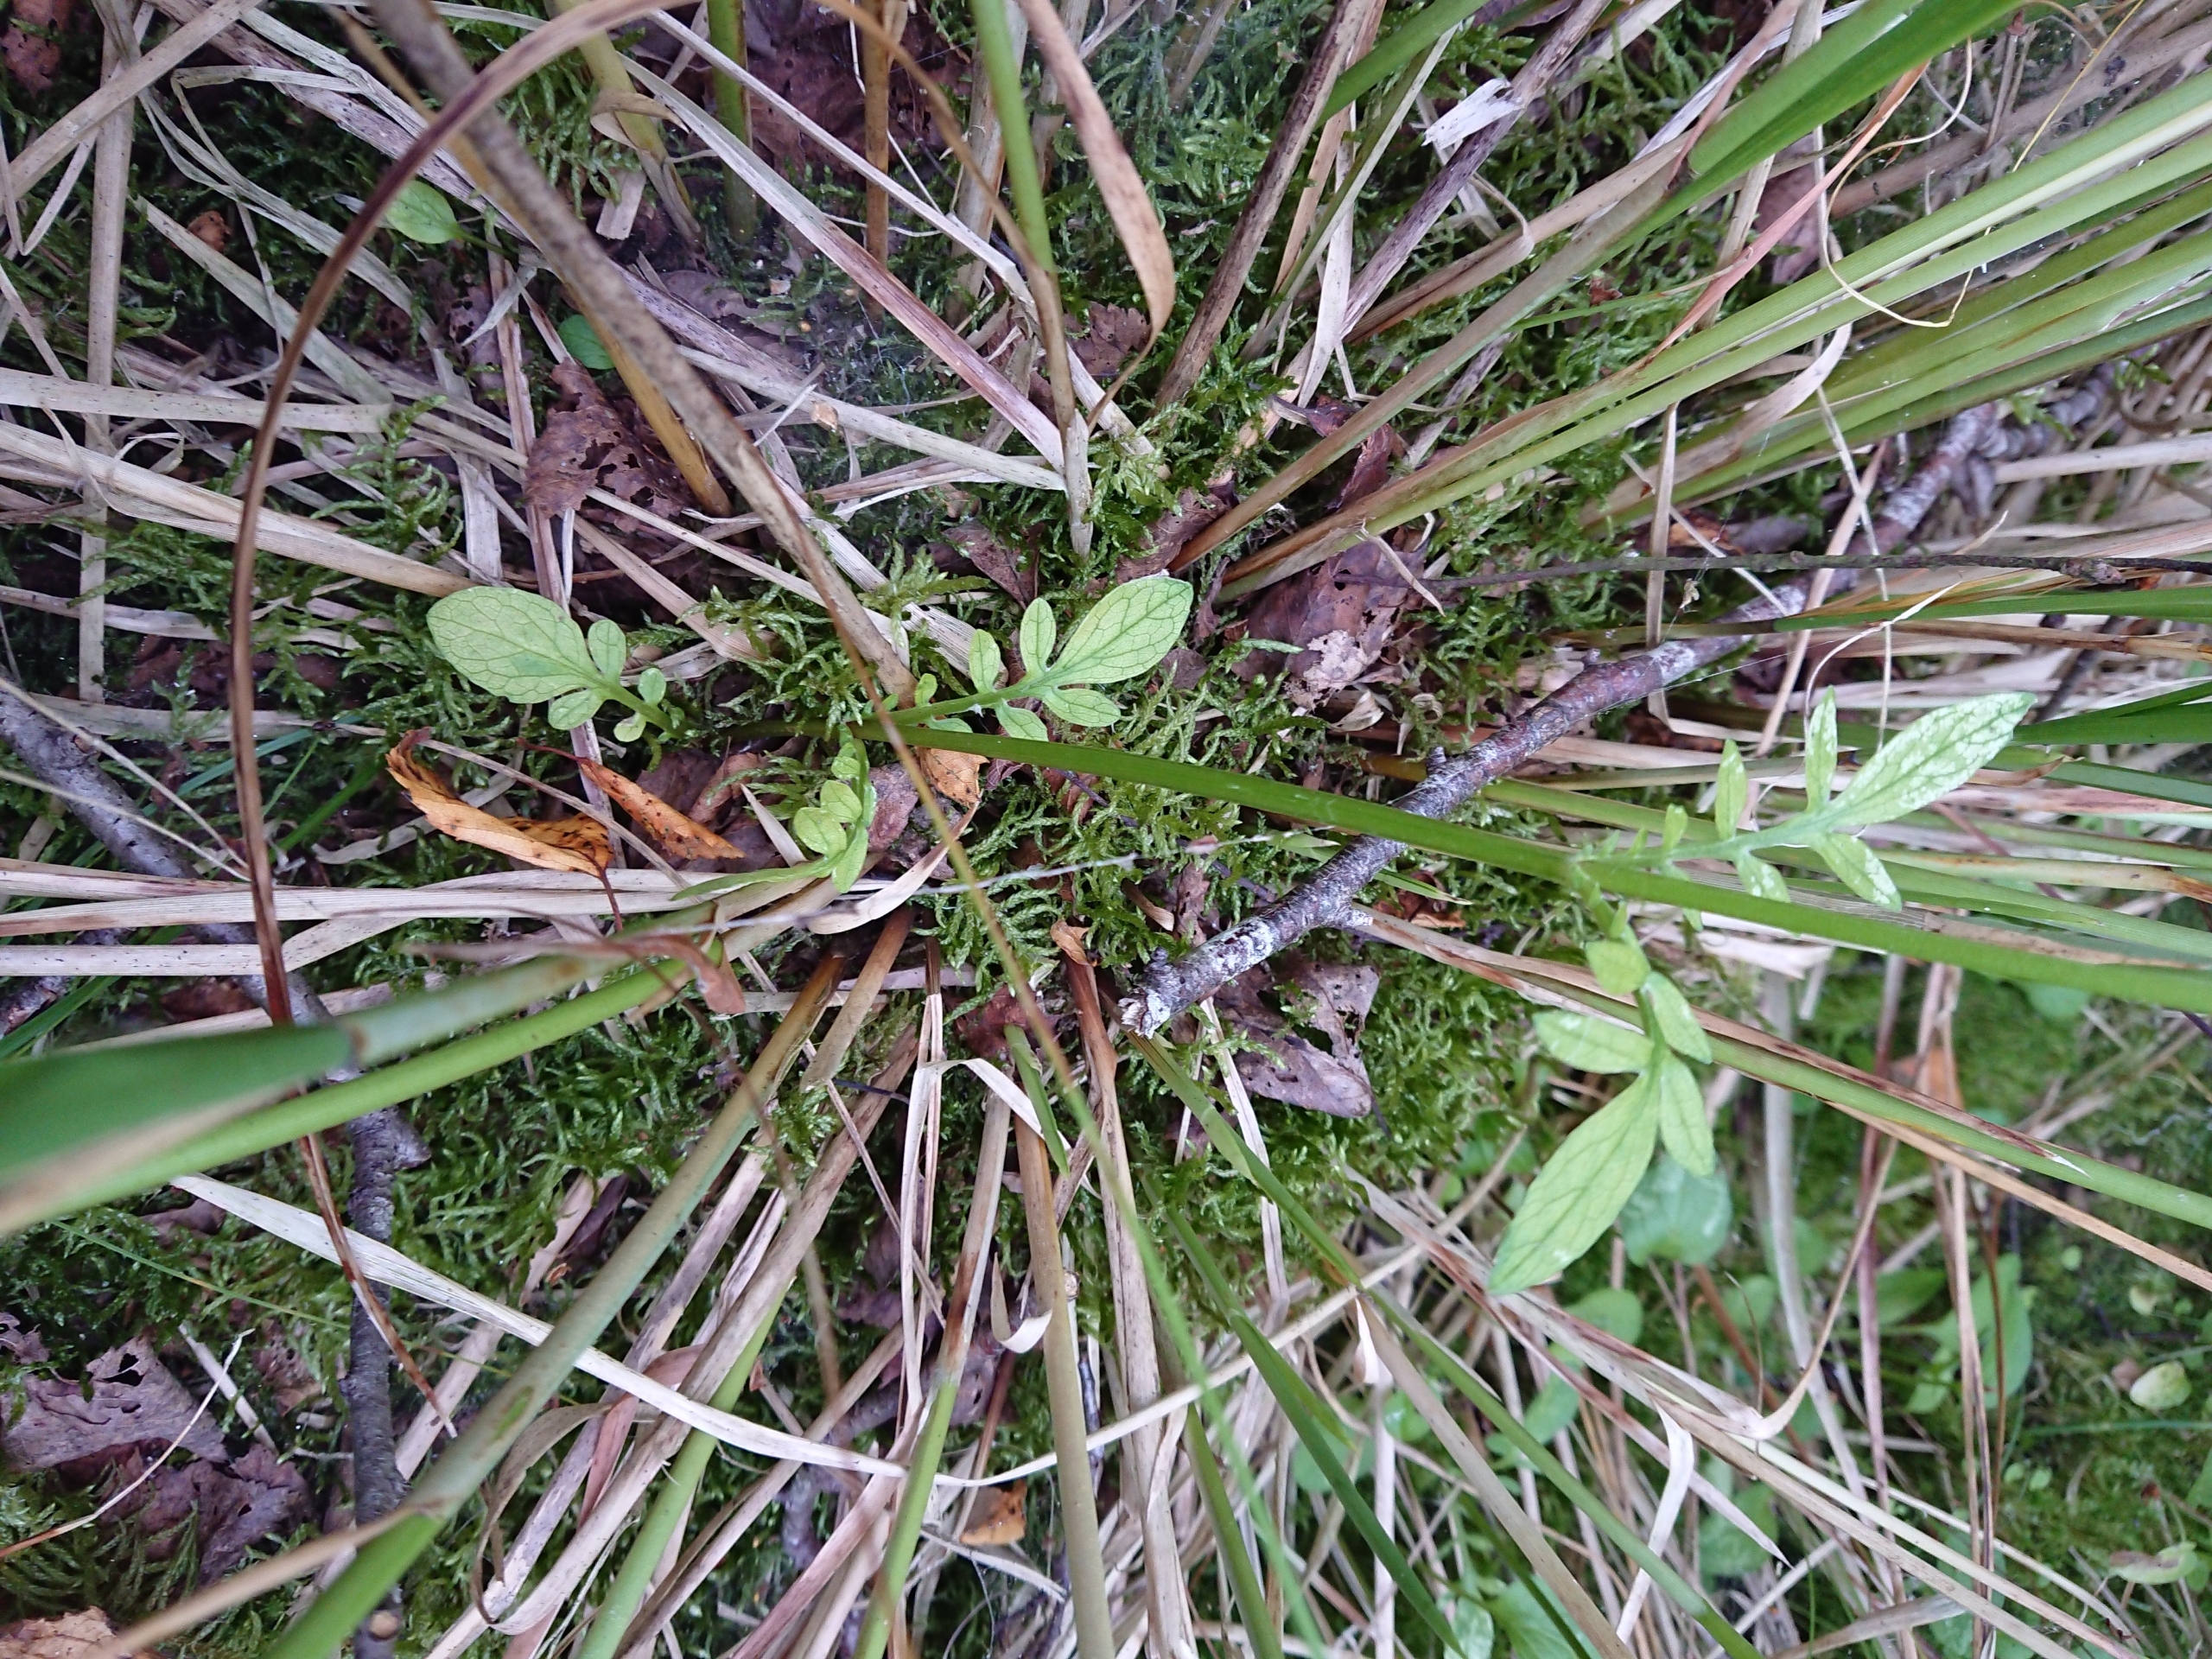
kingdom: Plantae
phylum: Tracheophyta
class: Magnoliopsida
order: Dipsacales
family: Caprifoliaceae
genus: Valeriana
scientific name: Valeriana dioica
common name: Tvebo baldrian
